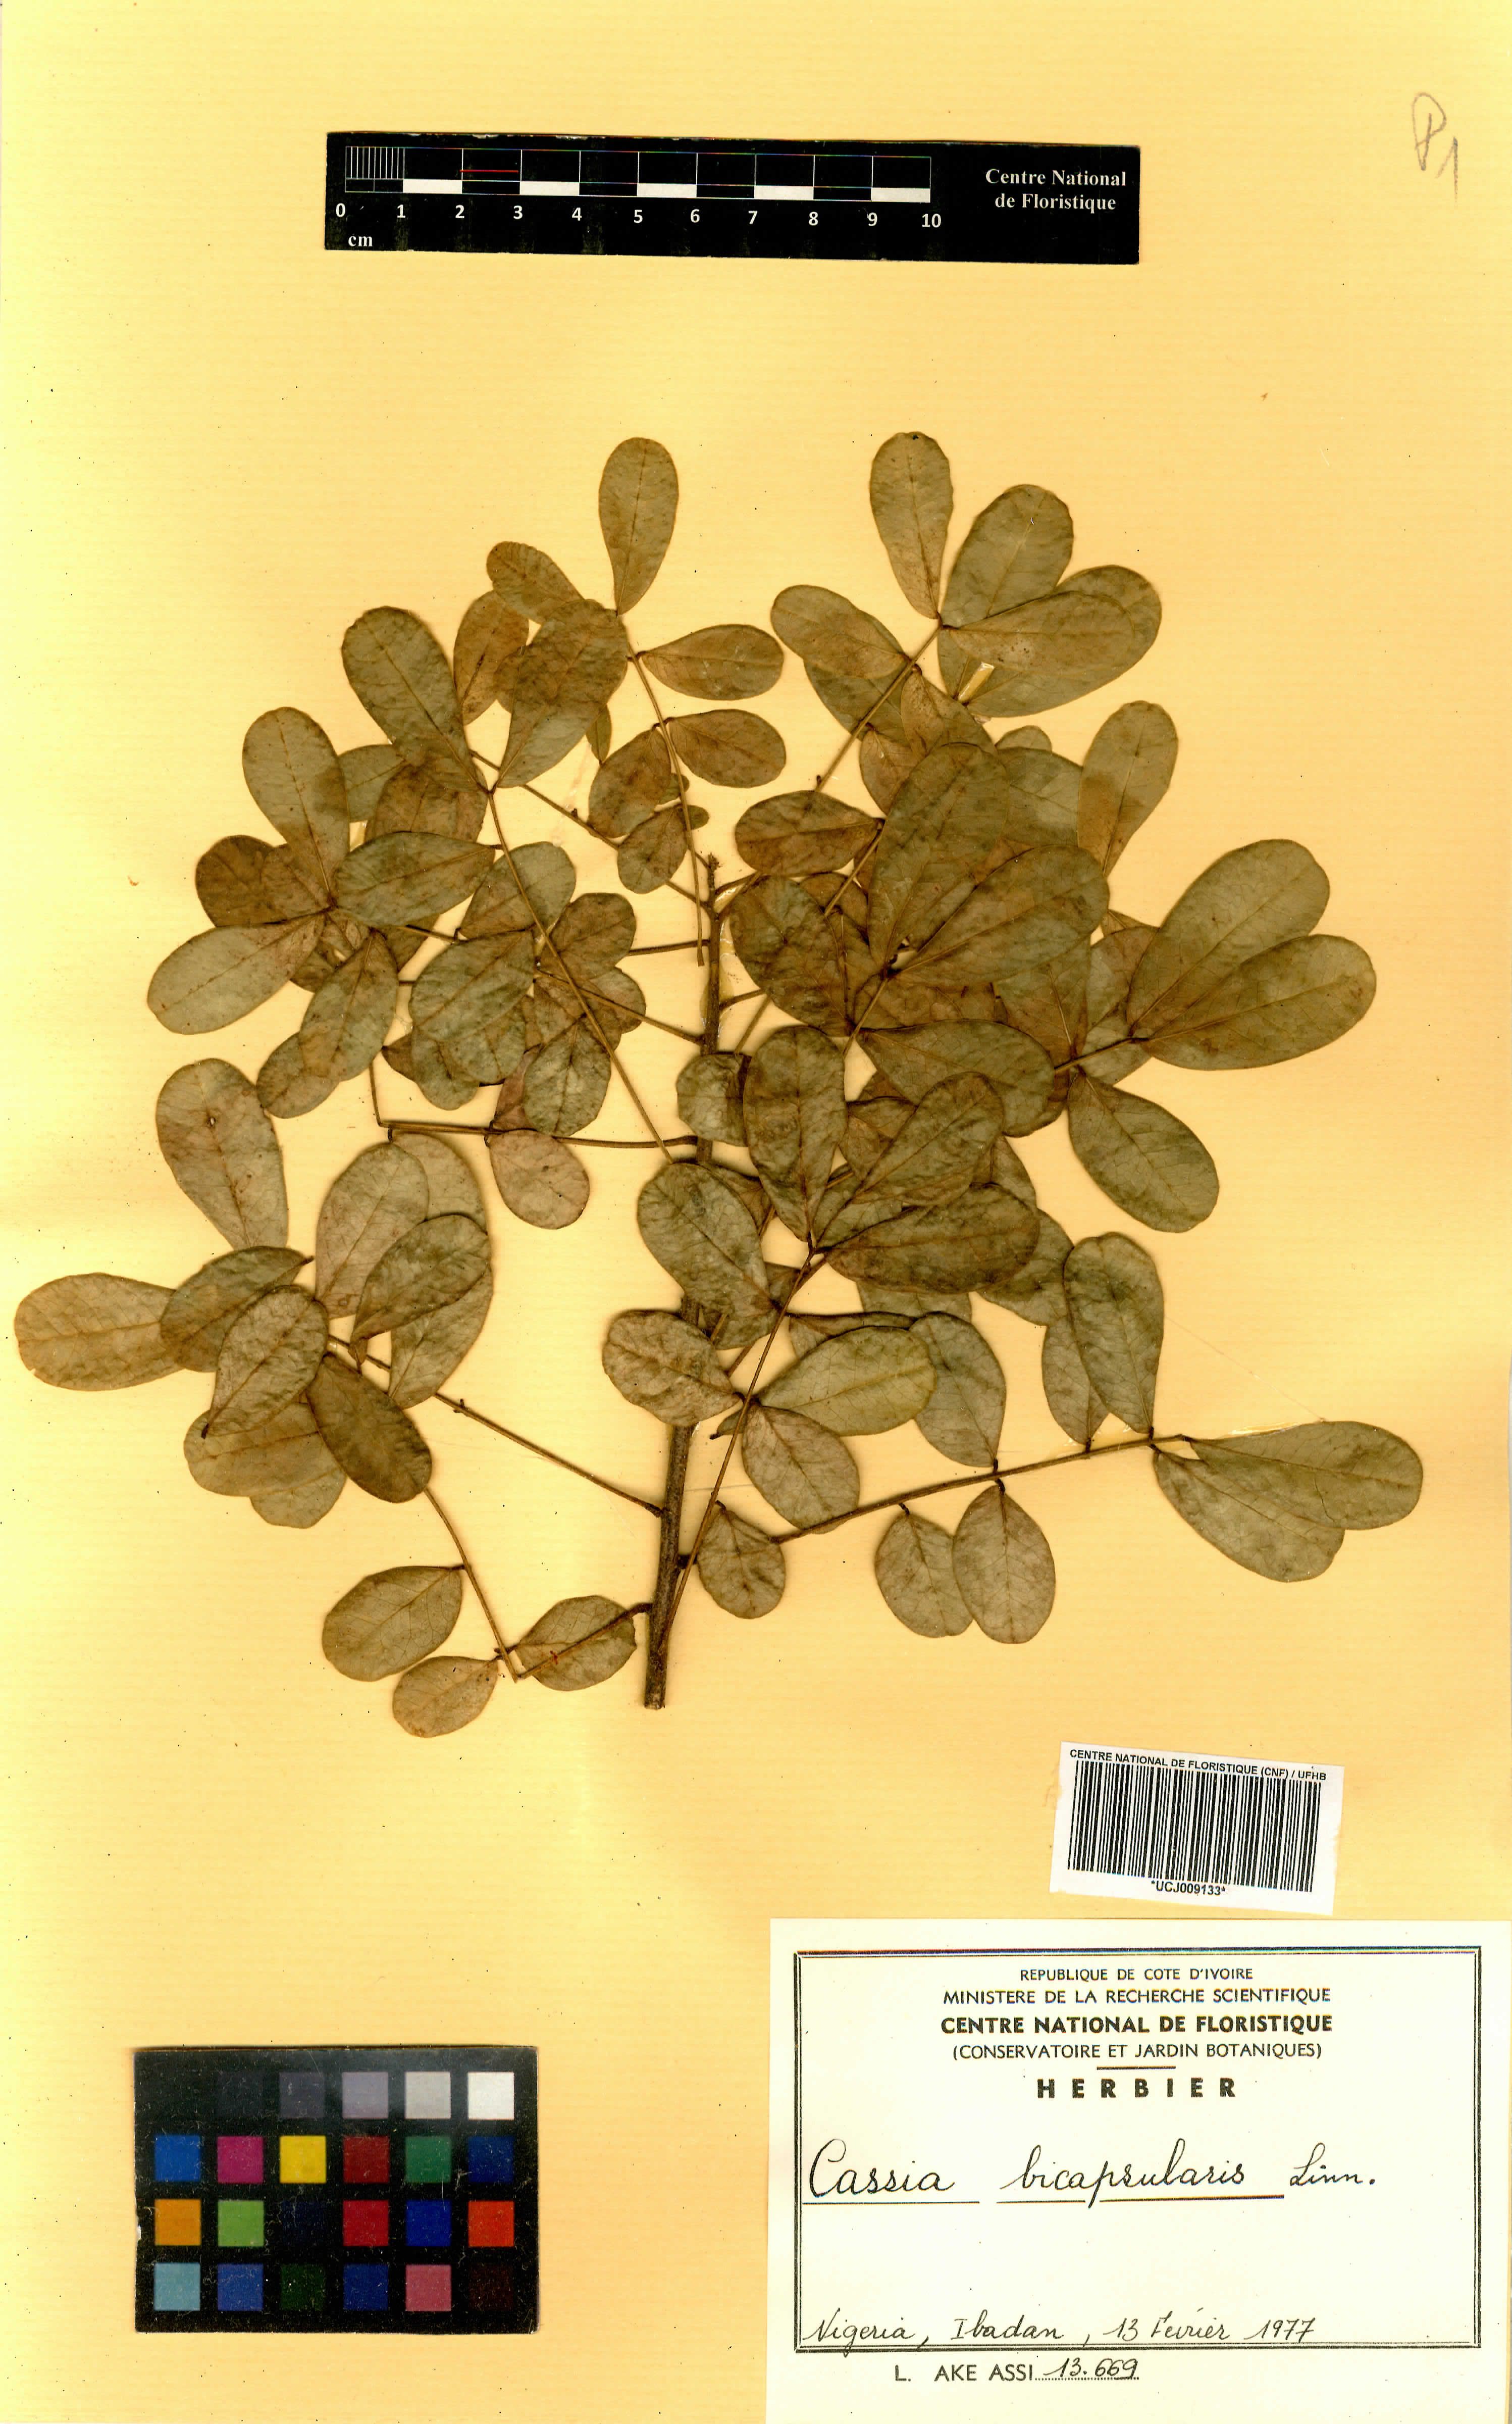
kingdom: Plantae
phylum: Tracheophyta
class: Magnoliopsida
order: Fabales
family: Fabaceae
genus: Senna
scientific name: Senna bicapsularis
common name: Christmasbush
